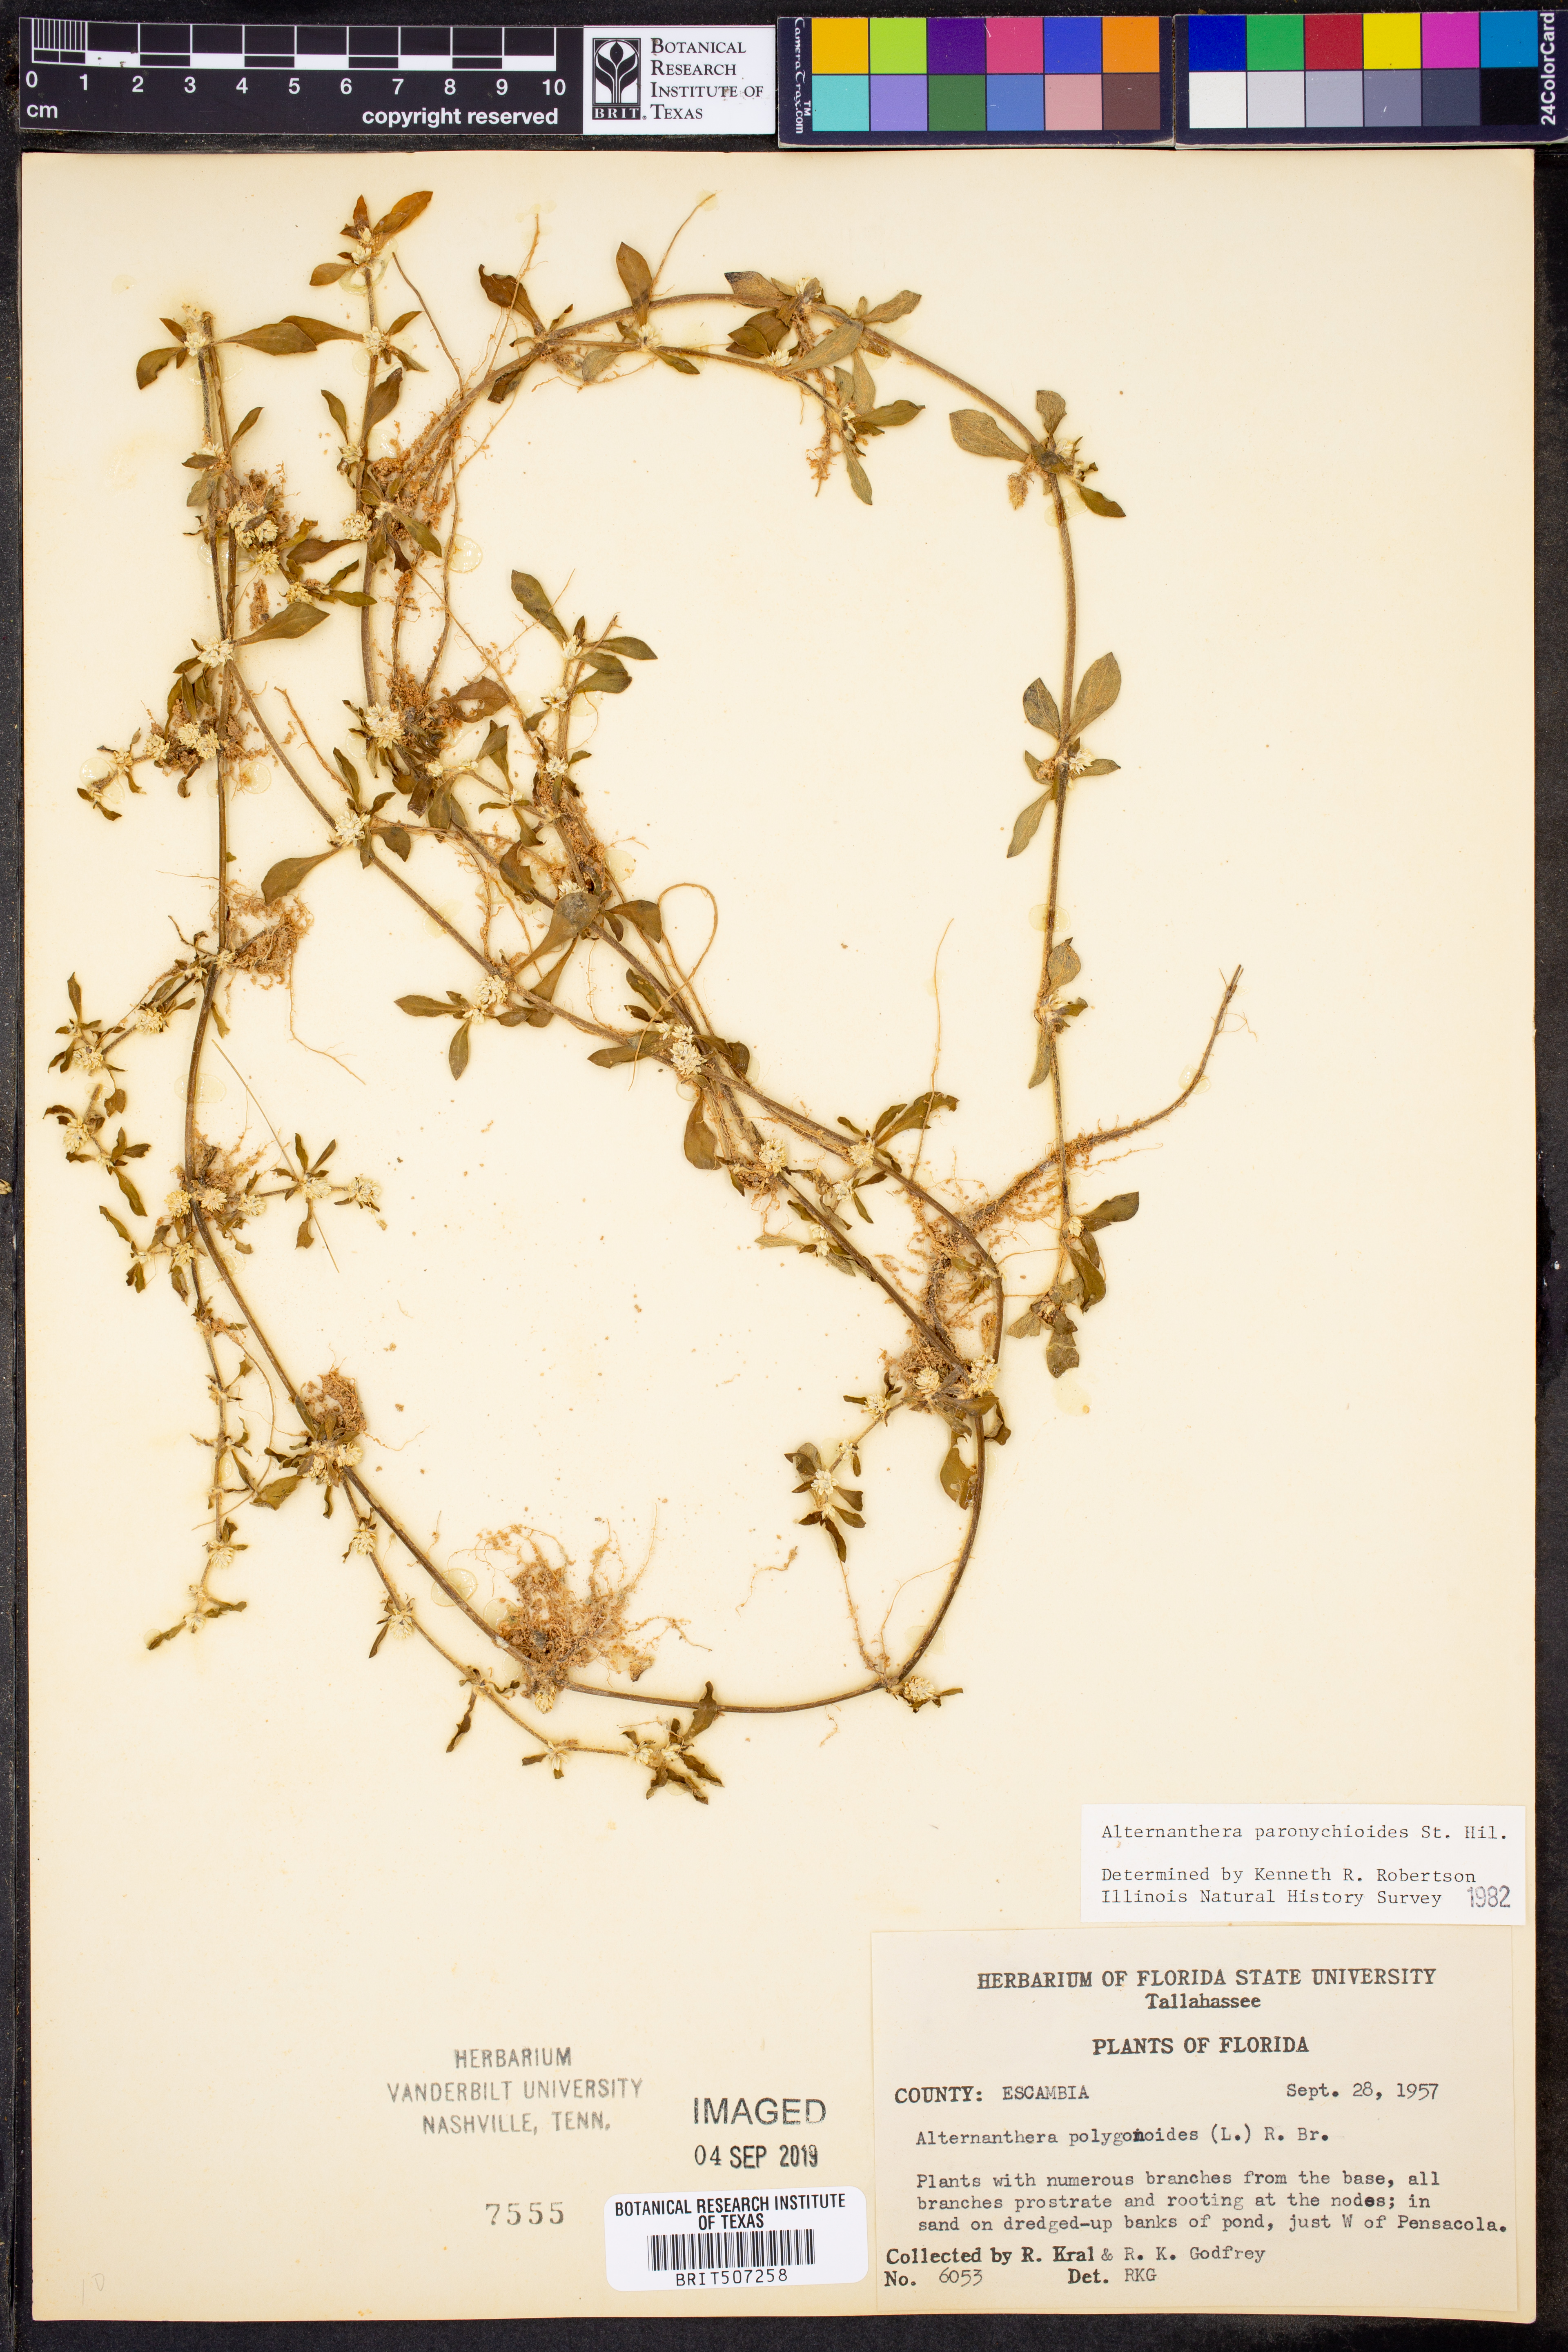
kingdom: Plantae
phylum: Tracheophyta
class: Magnoliopsida
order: Caryophyllales
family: Amaranthaceae
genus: Alternanthera
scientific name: Alternanthera paronychioides
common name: Smooth joyweed
